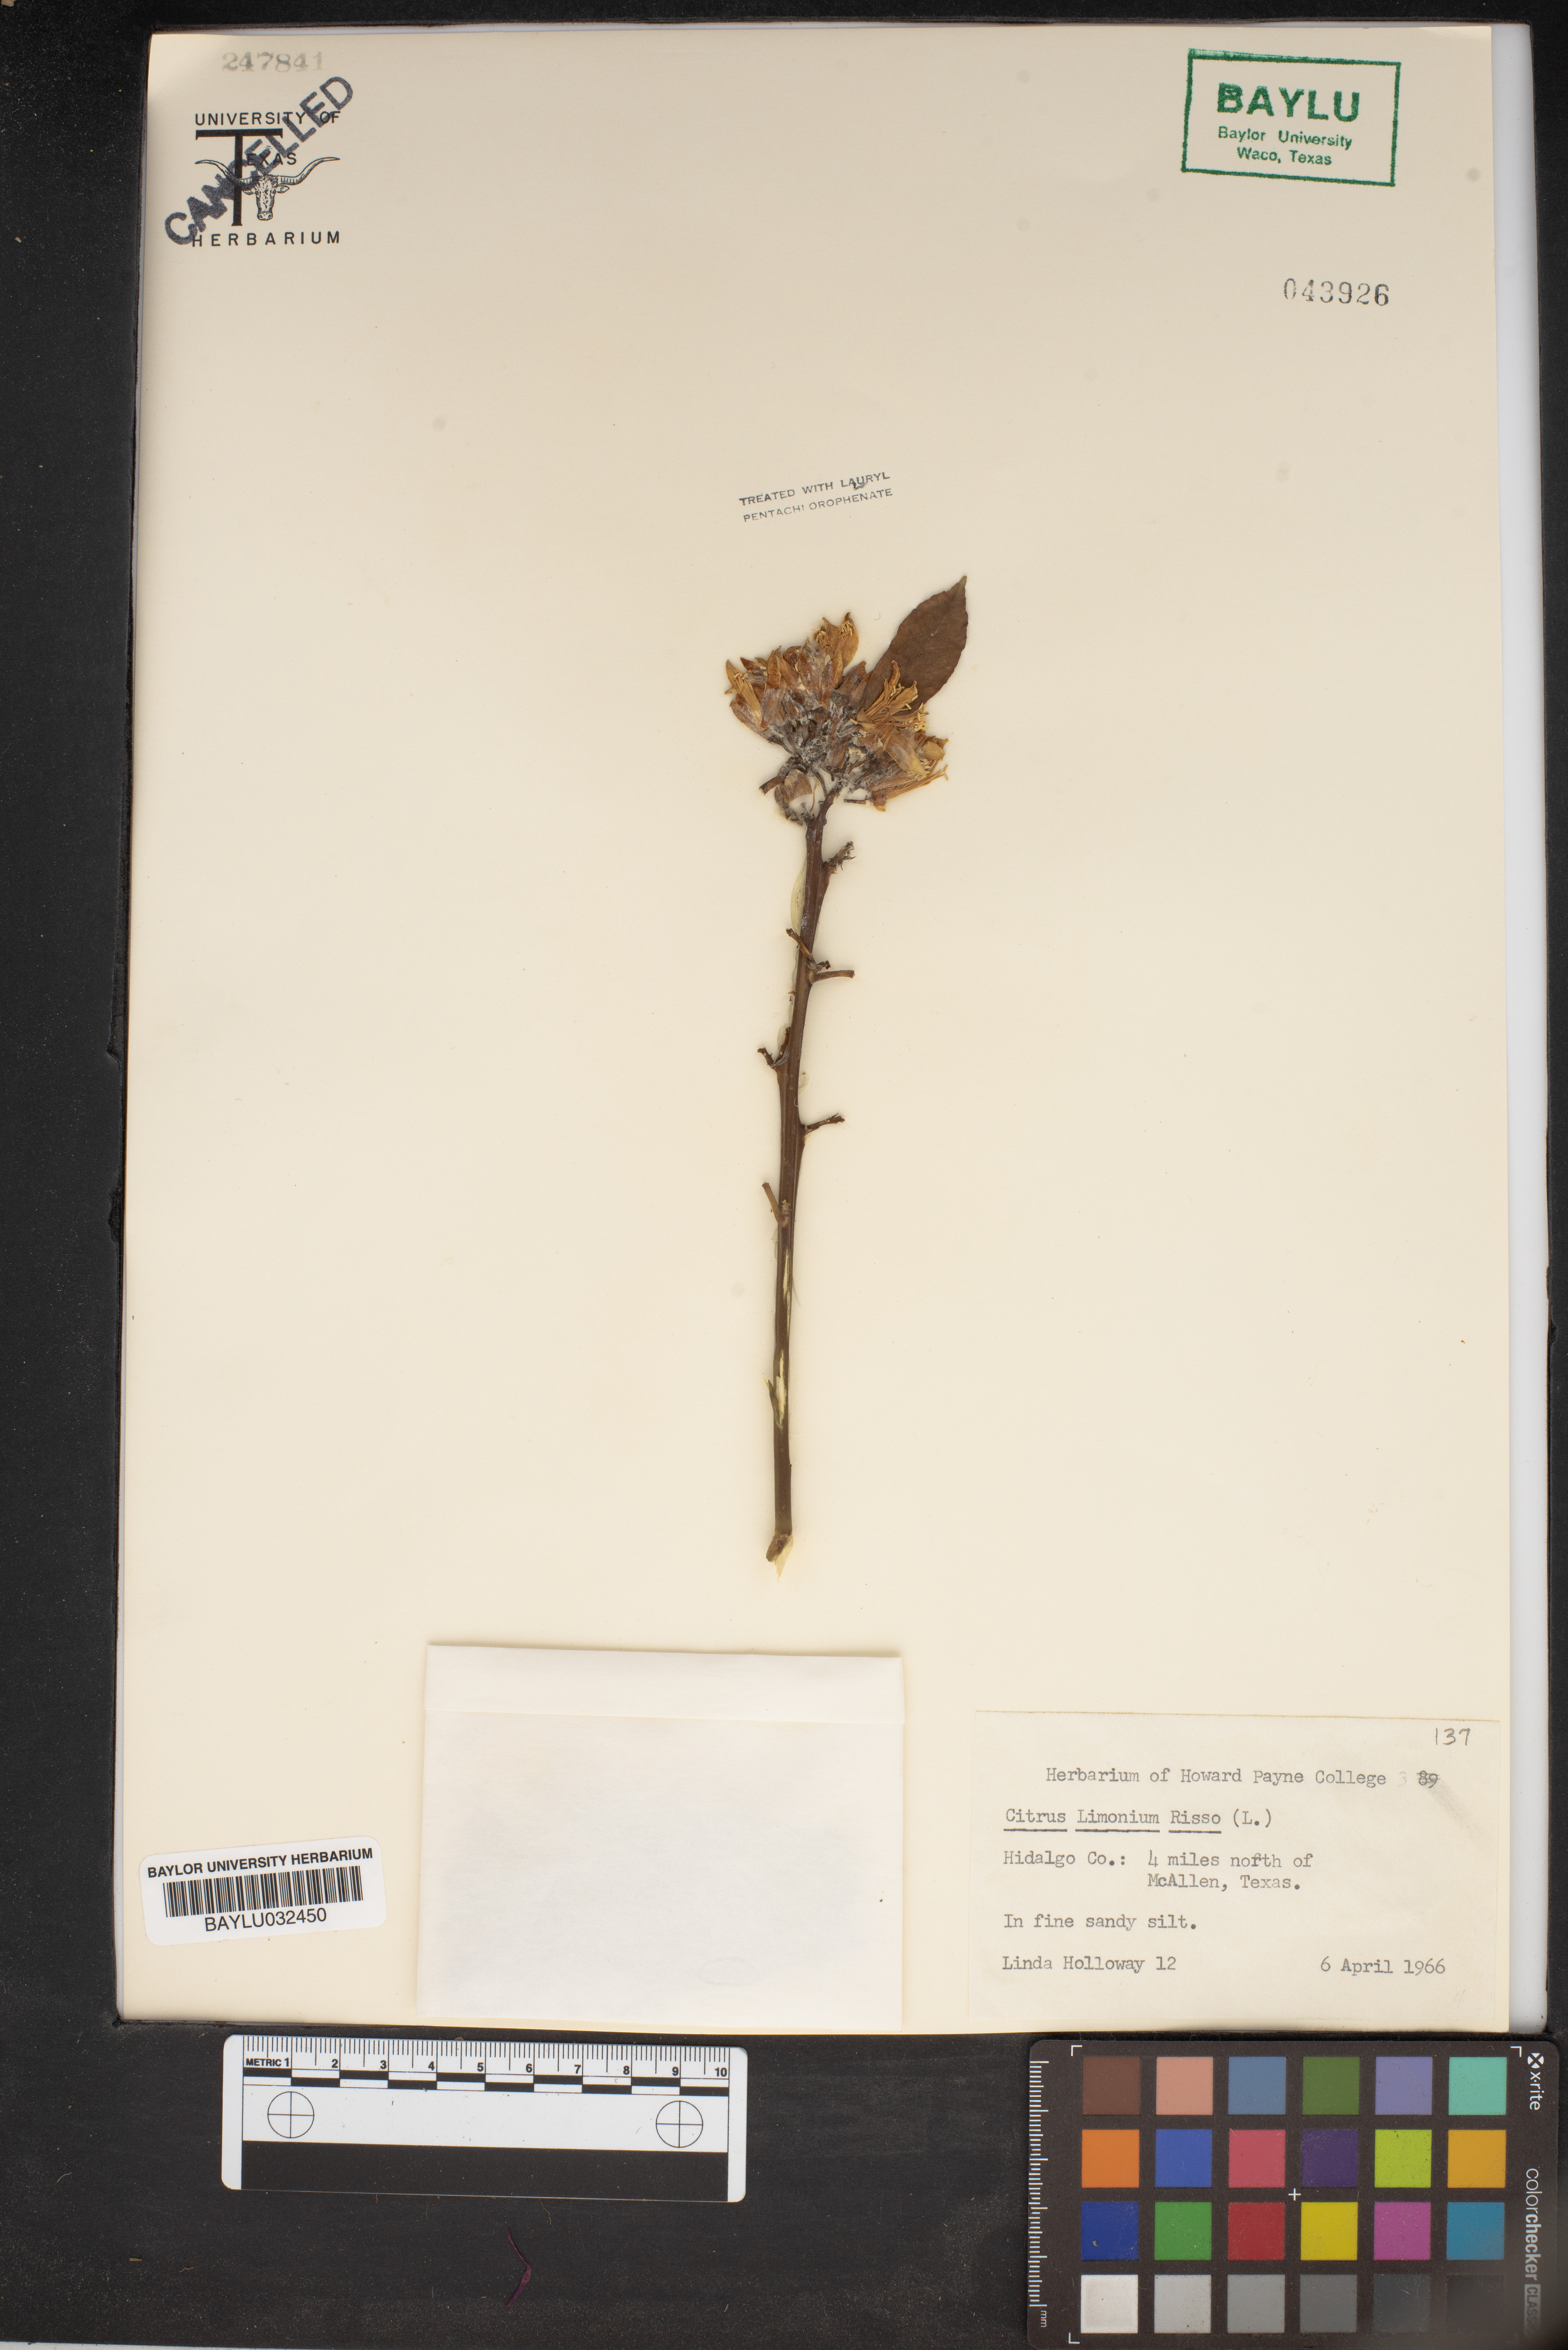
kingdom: Plantae
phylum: Tracheophyta
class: Magnoliopsida
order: Sapindales
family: Rutaceae
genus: Citrus
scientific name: Citrus limon
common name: Lemon
